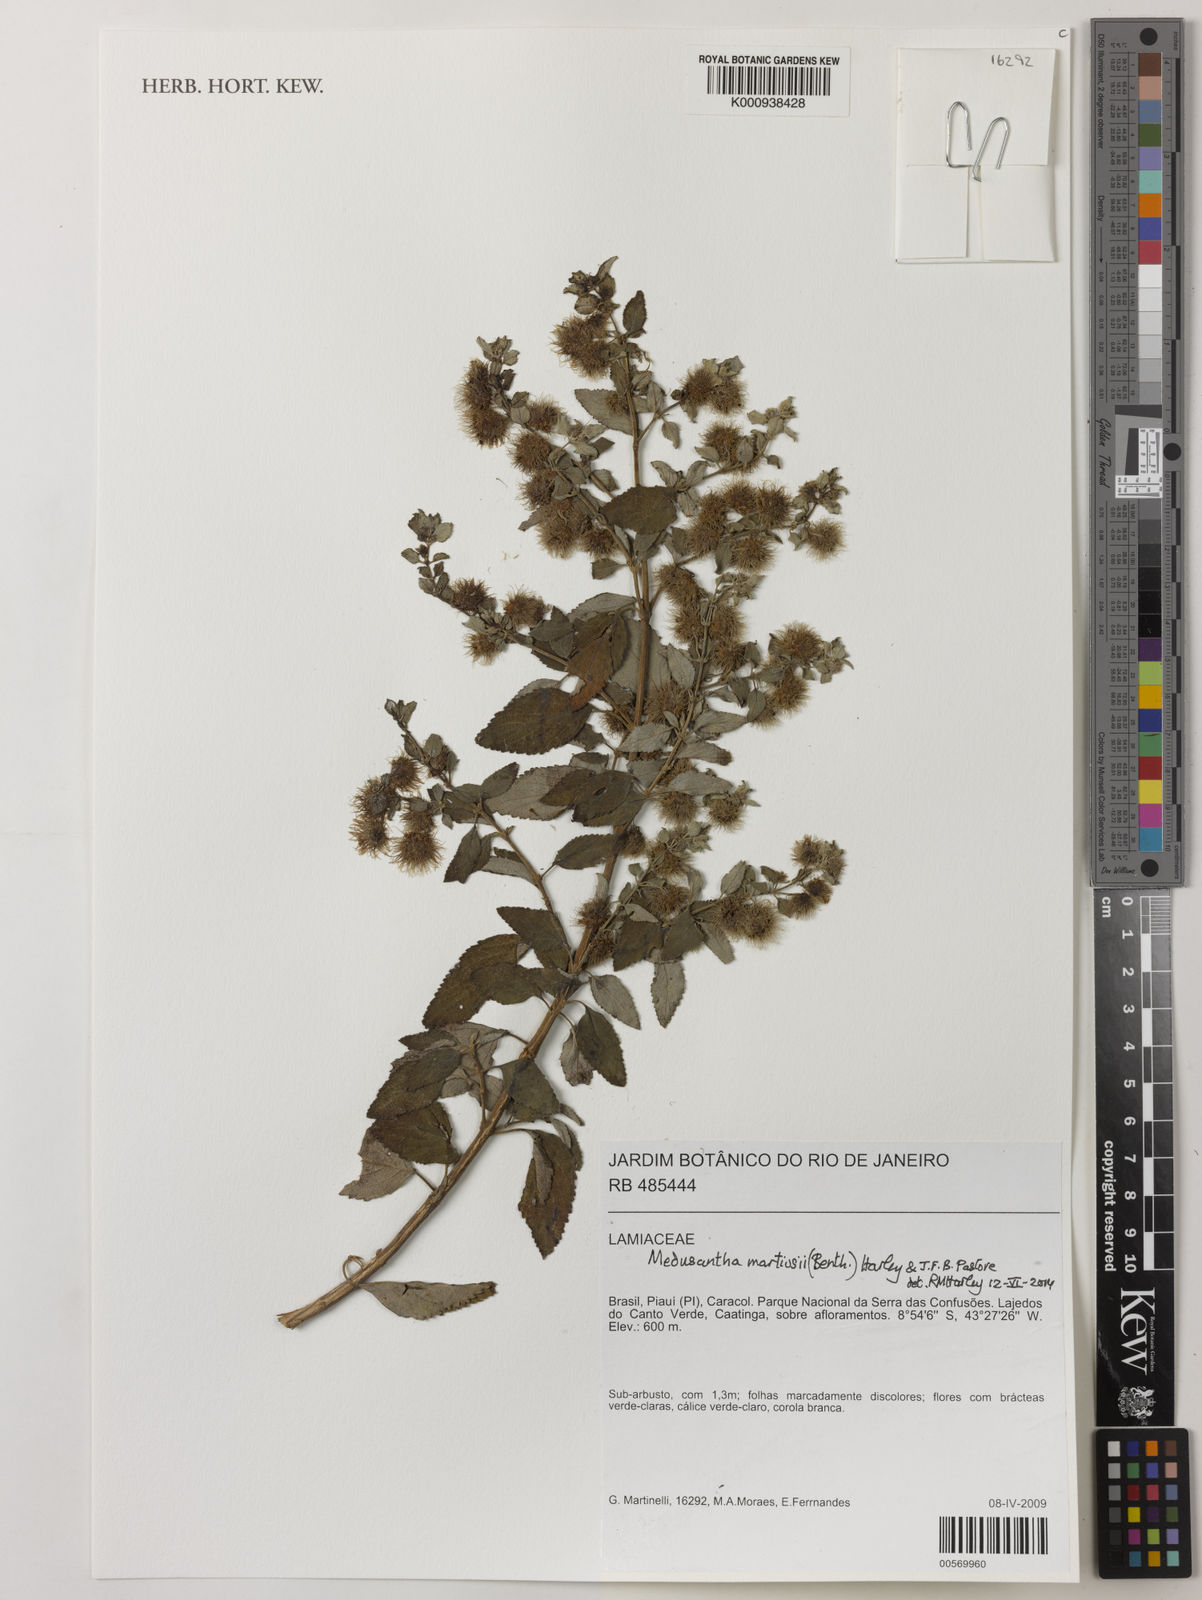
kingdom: Plantae
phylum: Tracheophyta
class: Magnoliopsida
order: Lamiales
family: Lamiaceae
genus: Medusantha
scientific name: Medusantha martiusii
